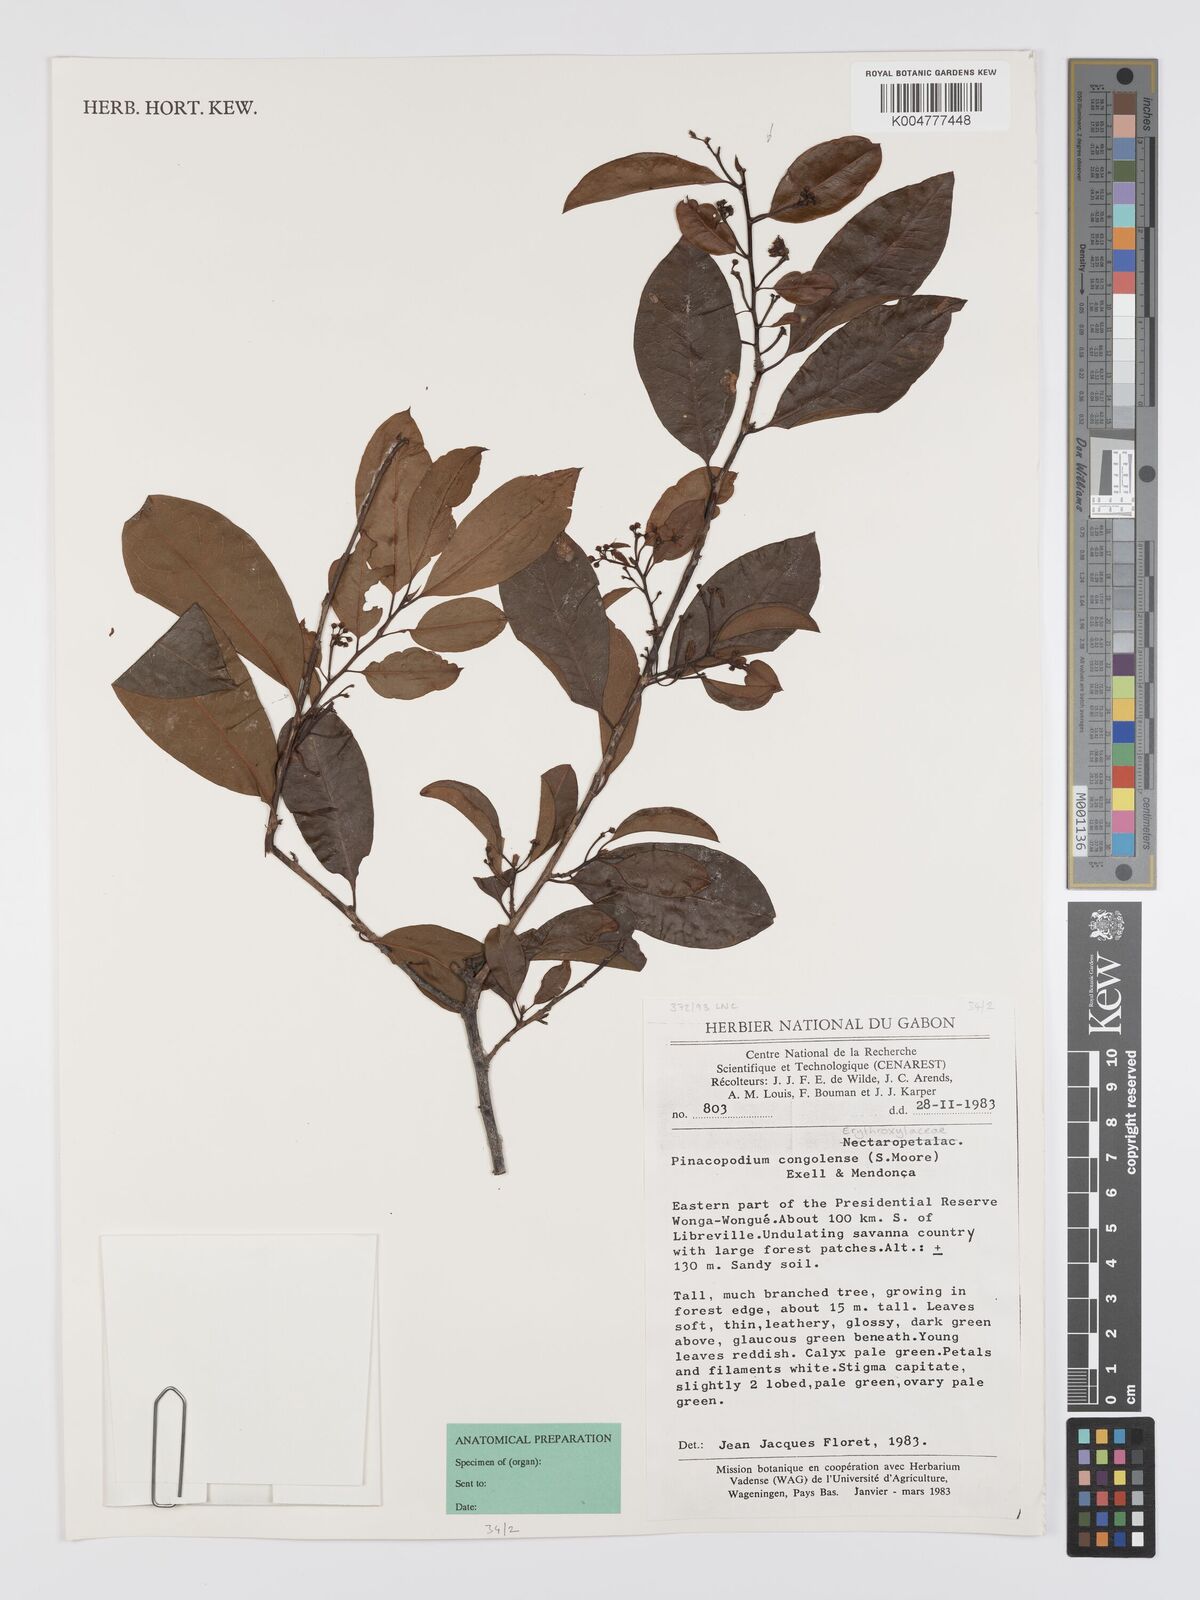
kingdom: Plantae
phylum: Tracheophyta
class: Magnoliopsida
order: Malpighiales
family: Erythroxylaceae
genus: Pinacopodium
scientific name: Pinacopodium congolense
